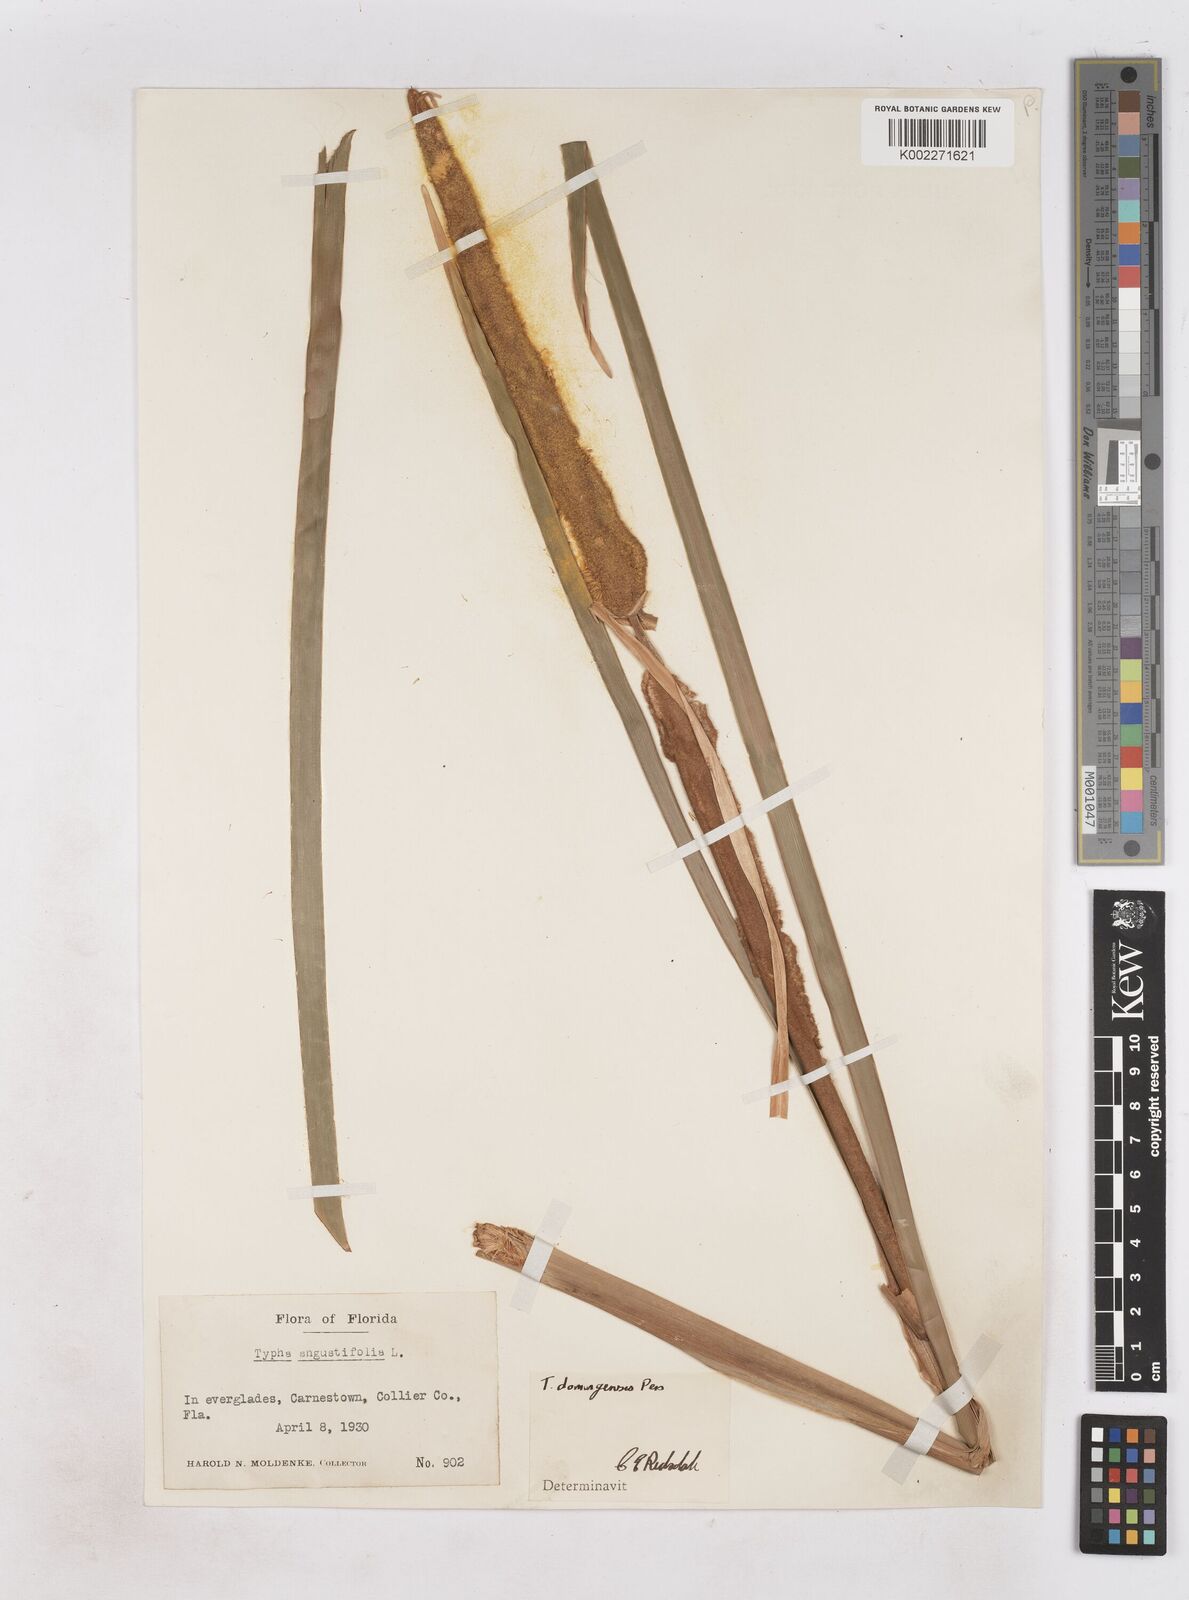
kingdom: Plantae
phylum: Tracheophyta
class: Liliopsida
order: Poales
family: Typhaceae
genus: Typha
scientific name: Typha domingensis
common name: Southern cattail
